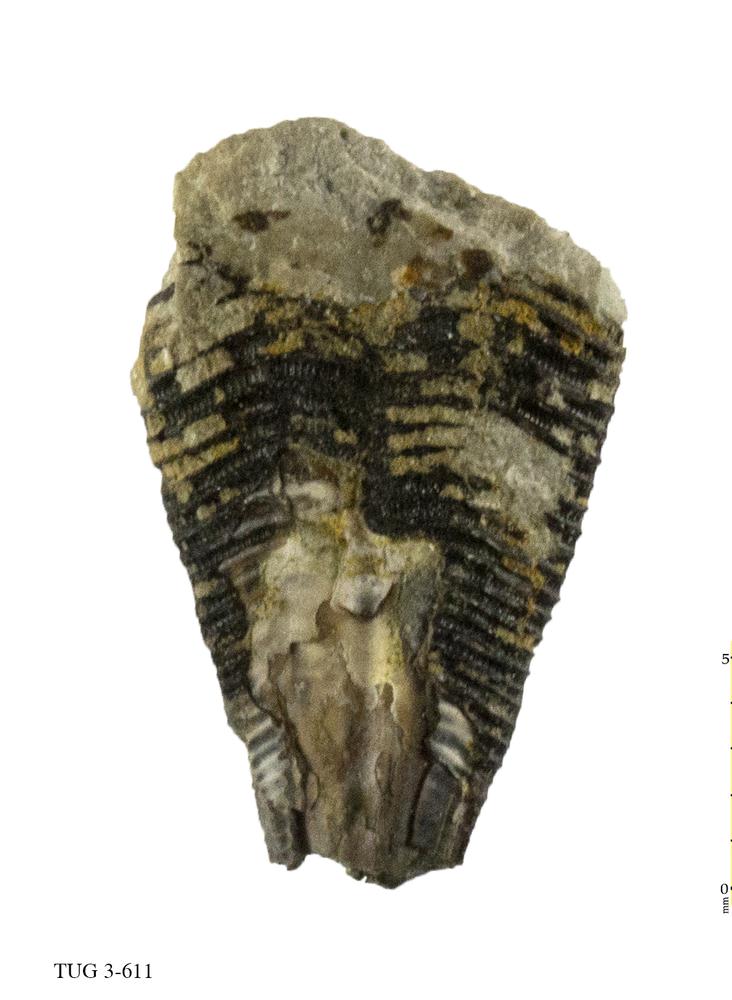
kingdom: Animalia
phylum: Cnidaria
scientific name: Cnidaria
